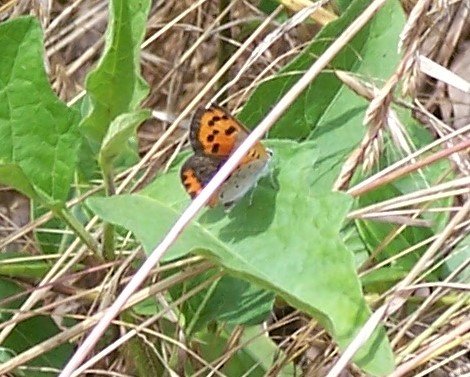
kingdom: Animalia
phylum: Arthropoda
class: Insecta
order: Lepidoptera
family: Lycaenidae
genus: Lycaena
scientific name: Lycaena phlaeas
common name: American Copper
